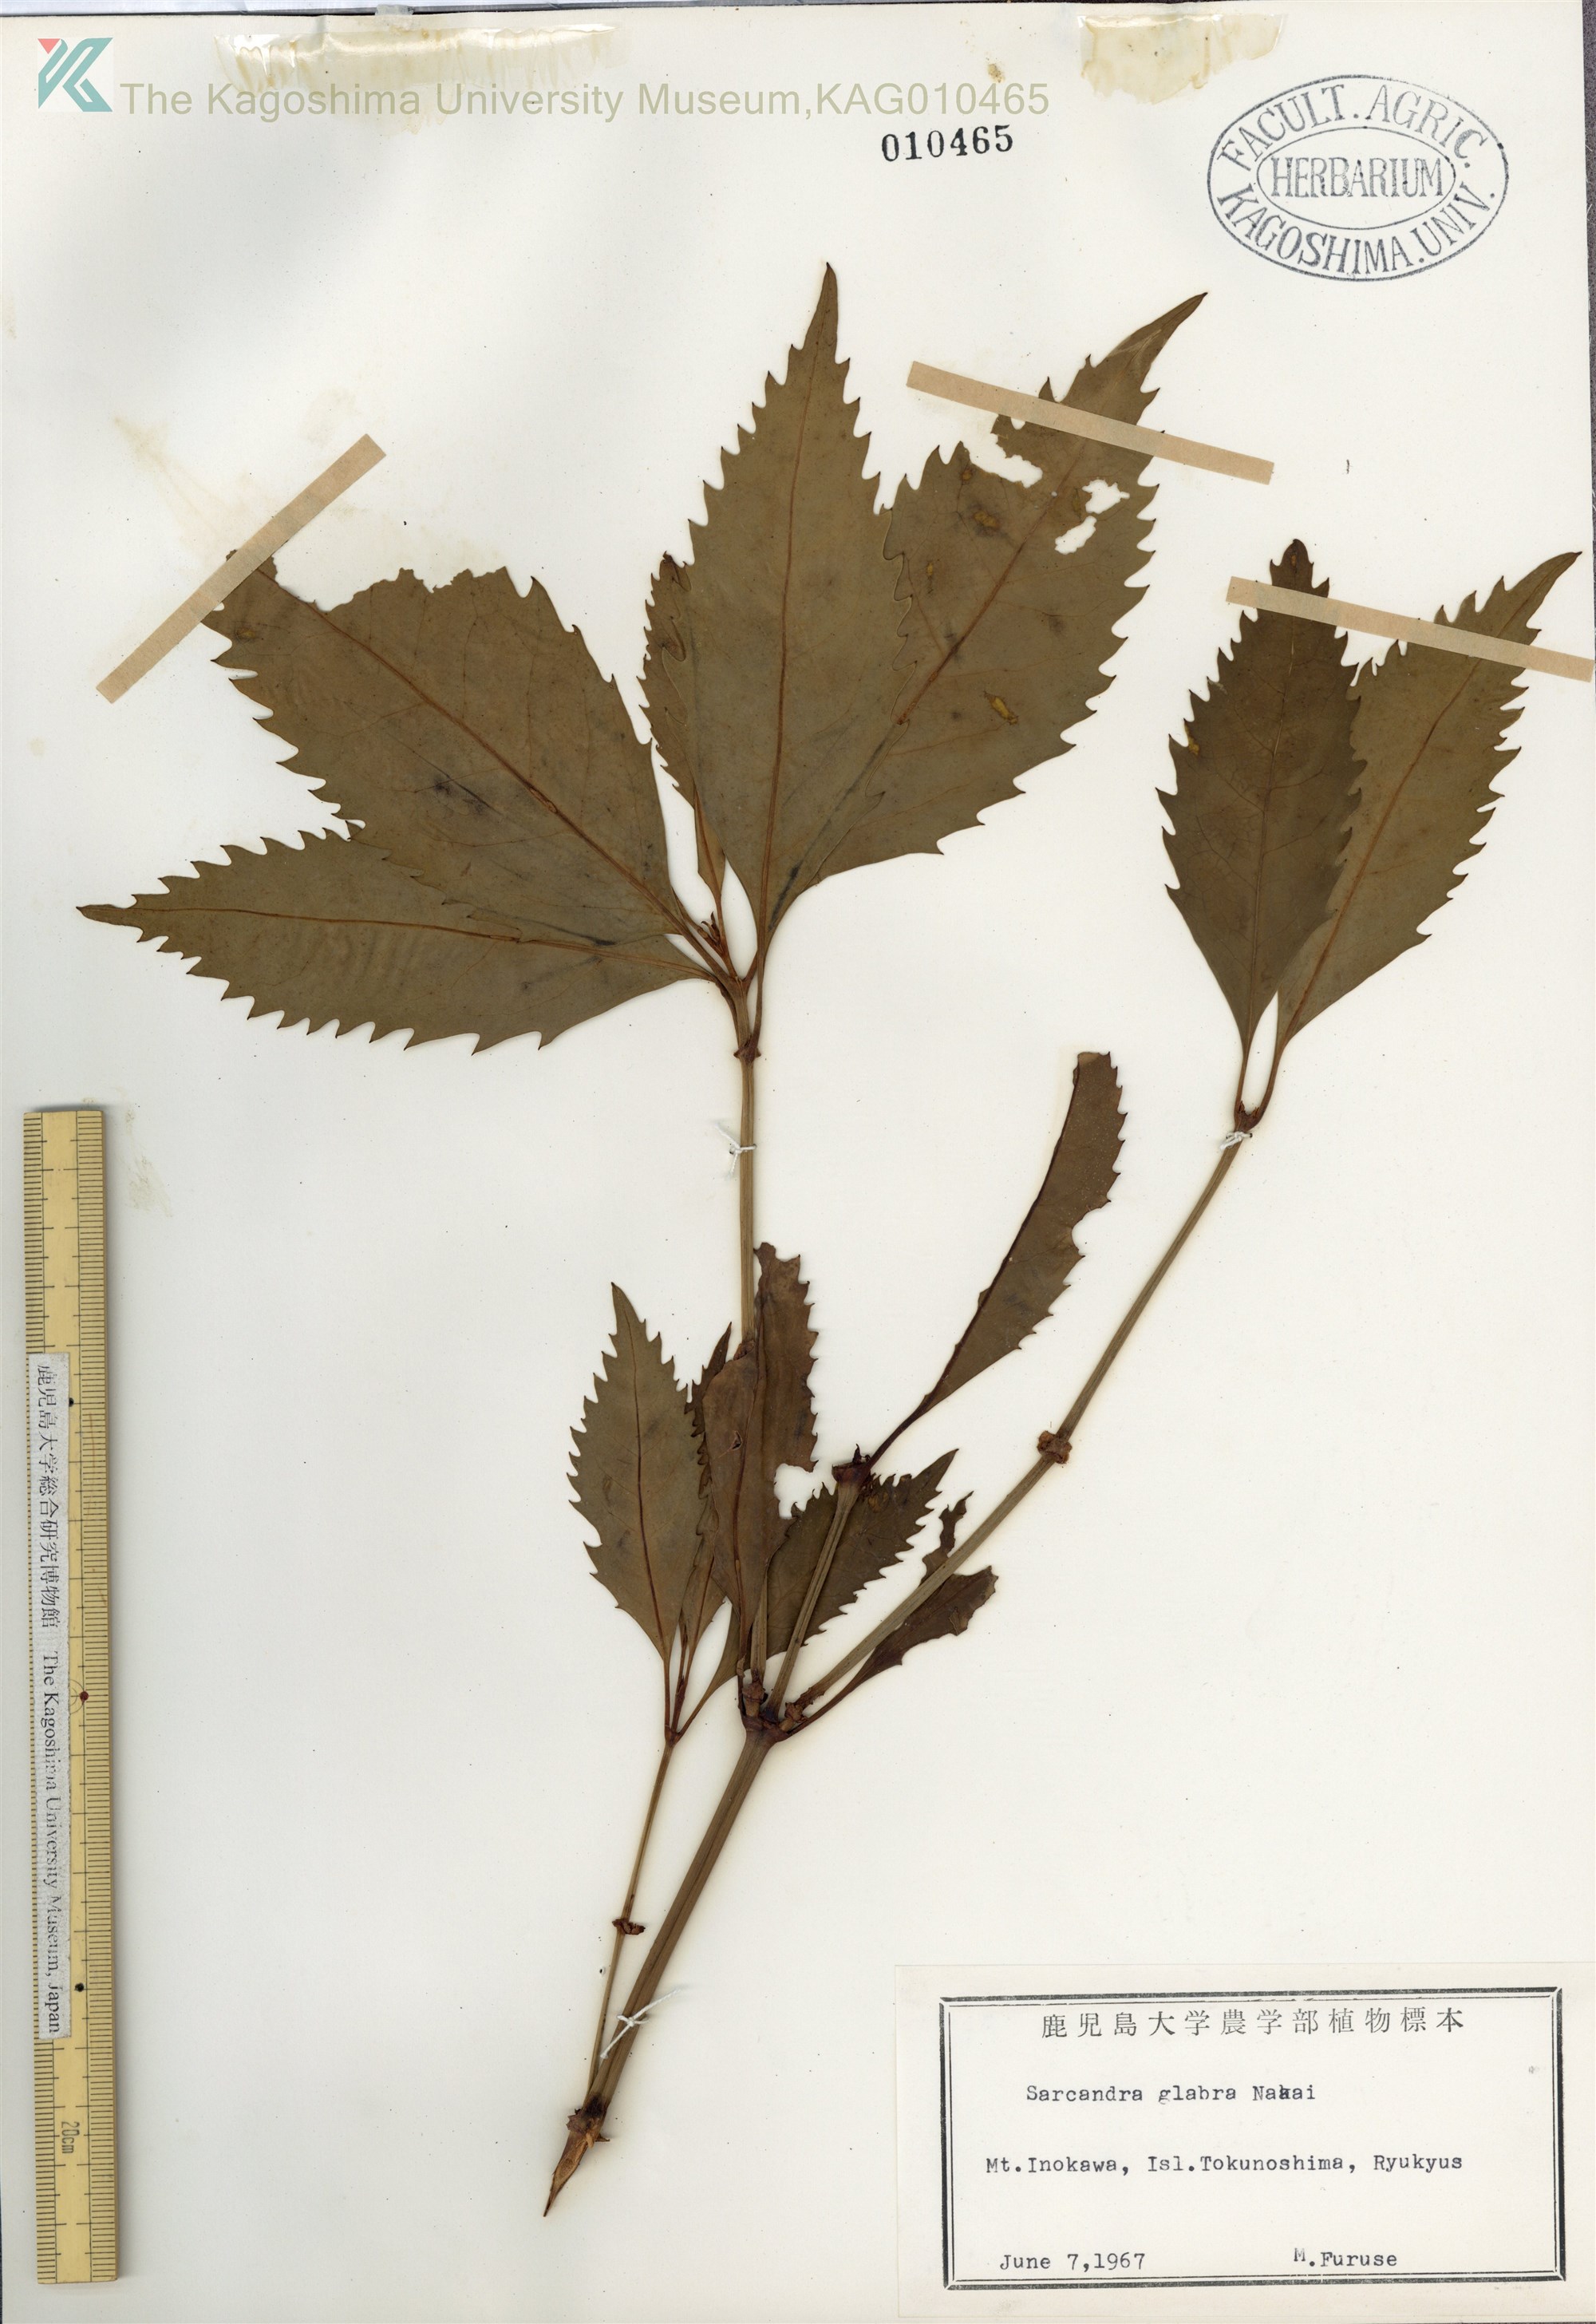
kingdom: Plantae
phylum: Tracheophyta
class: Magnoliopsida
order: Chloranthales
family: Chloranthaceae
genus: Sarcandra
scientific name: Sarcandra glabra
